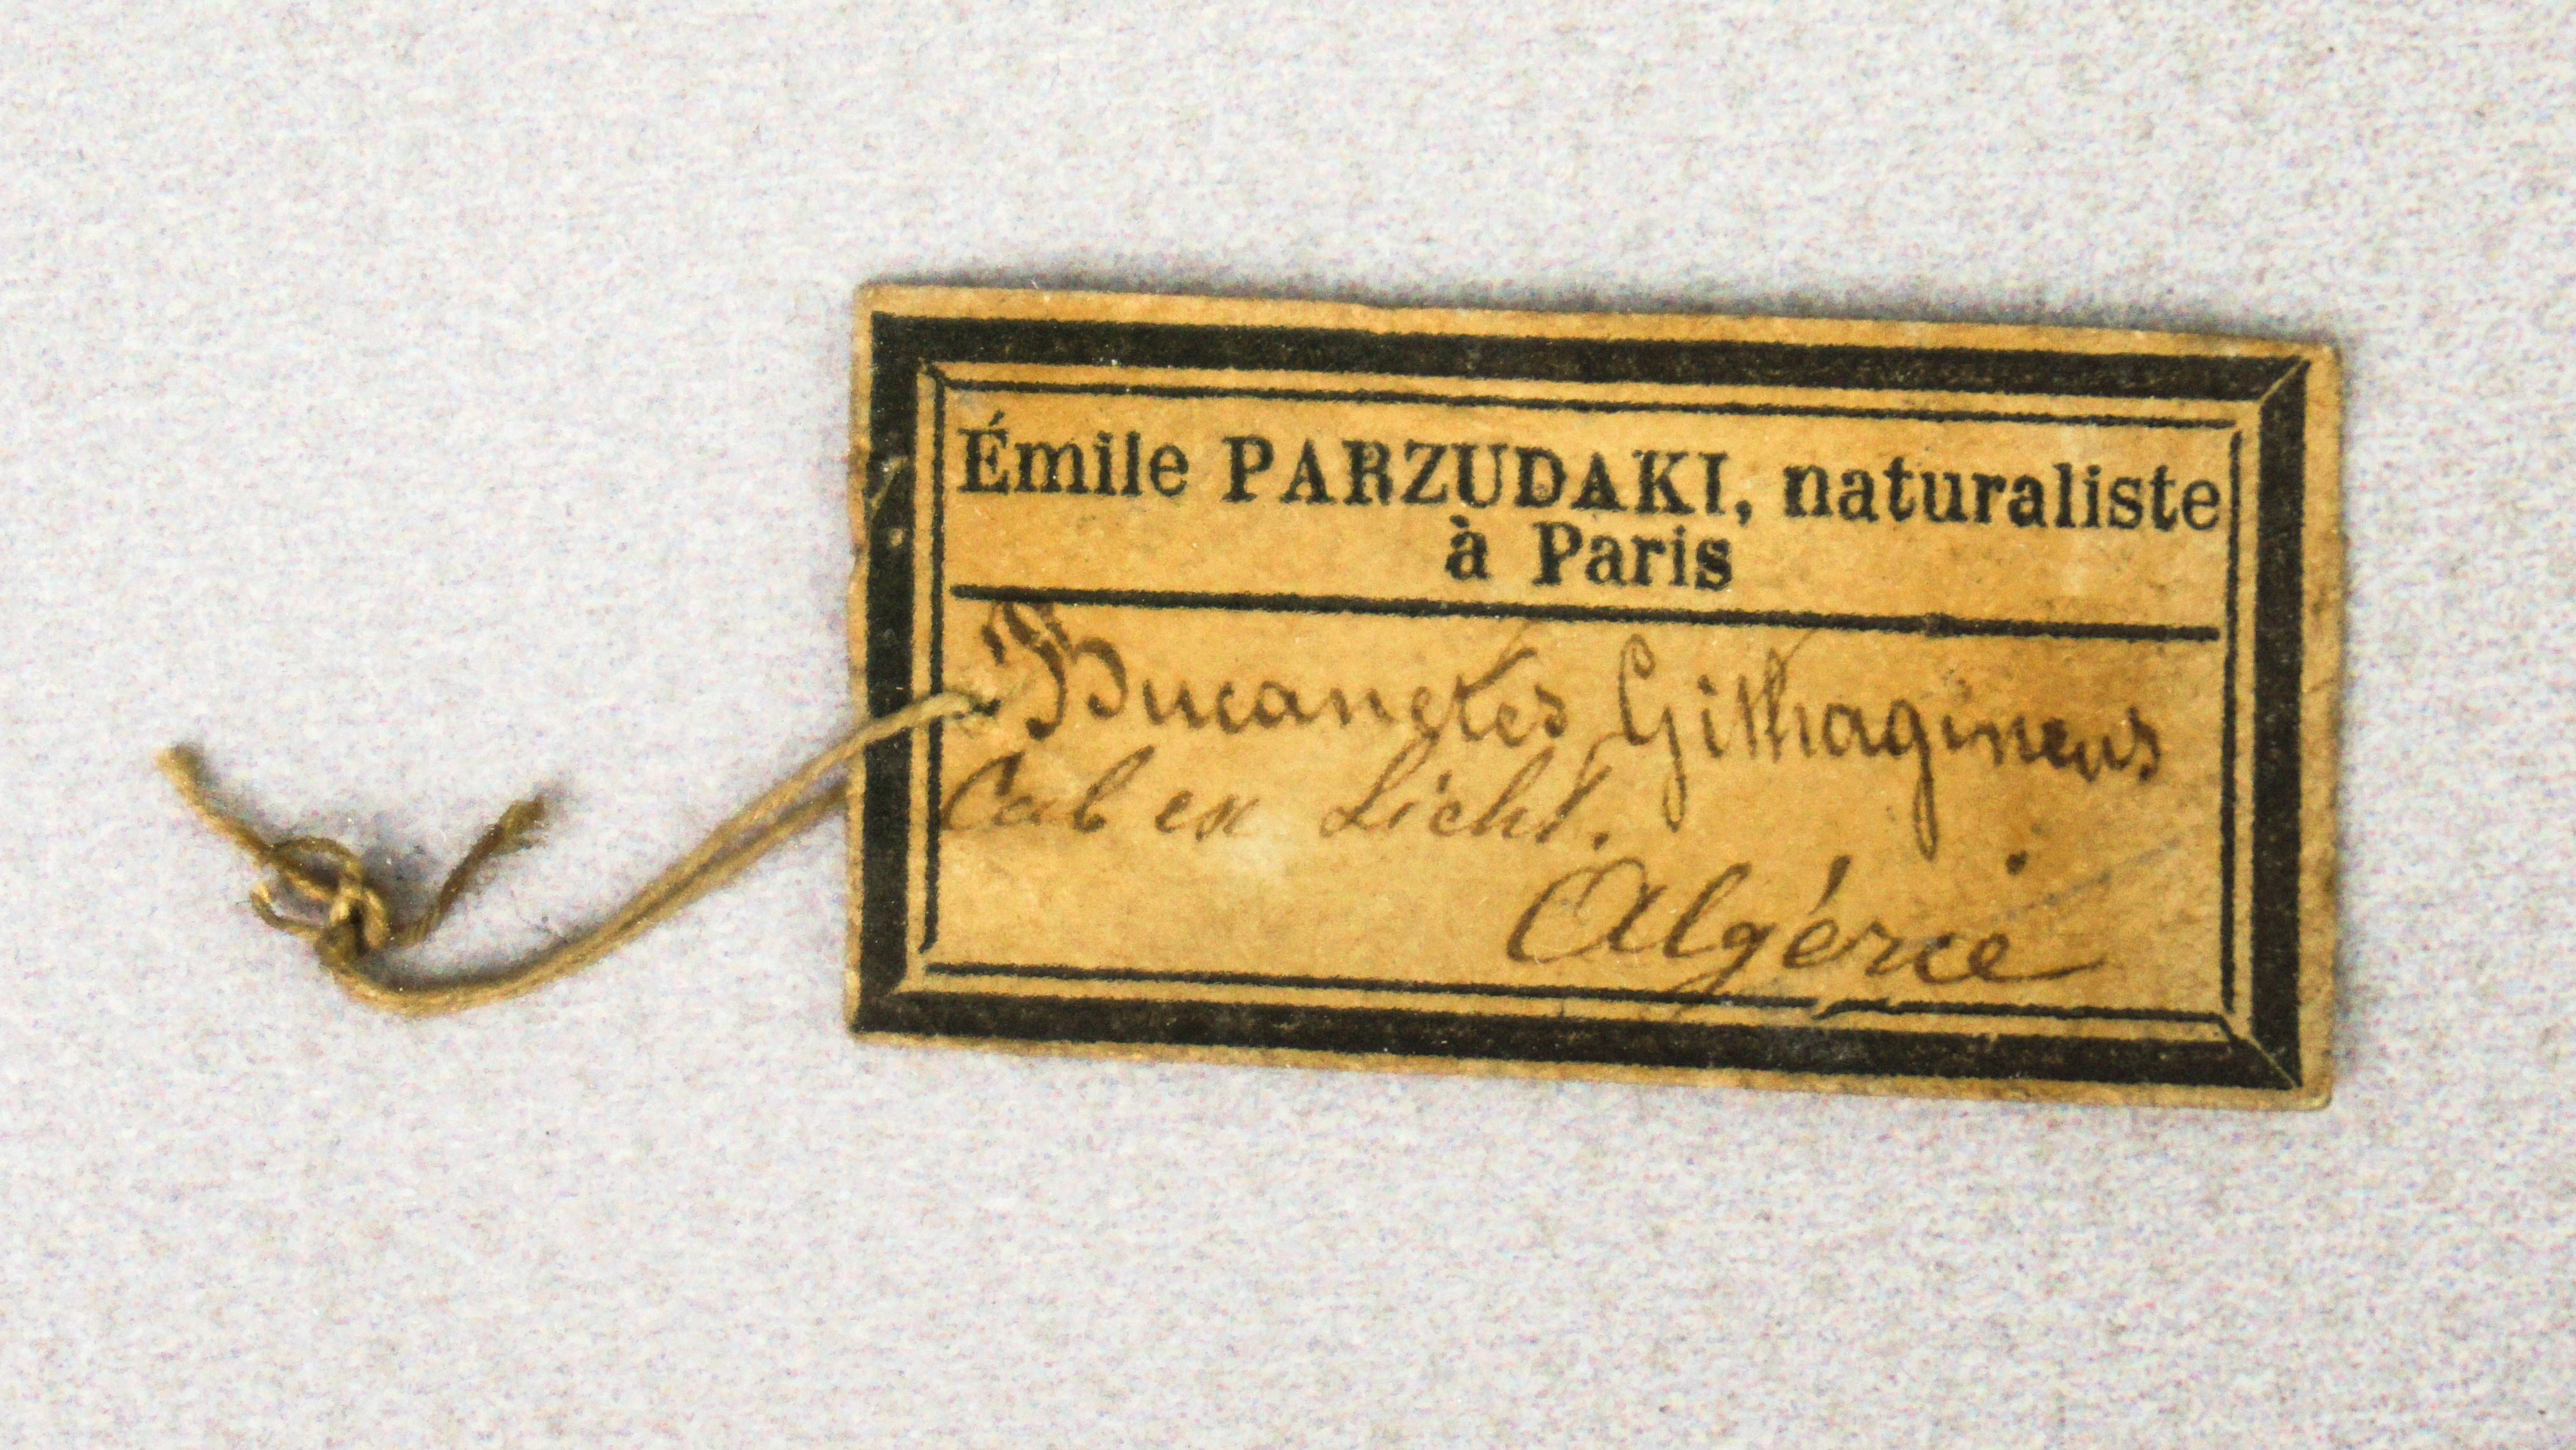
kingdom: Animalia
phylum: Chordata
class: Aves
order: Passeriformes
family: Fringillidae
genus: Bucanetes
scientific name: Bucanetes githagineus
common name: Trumpeter finch
